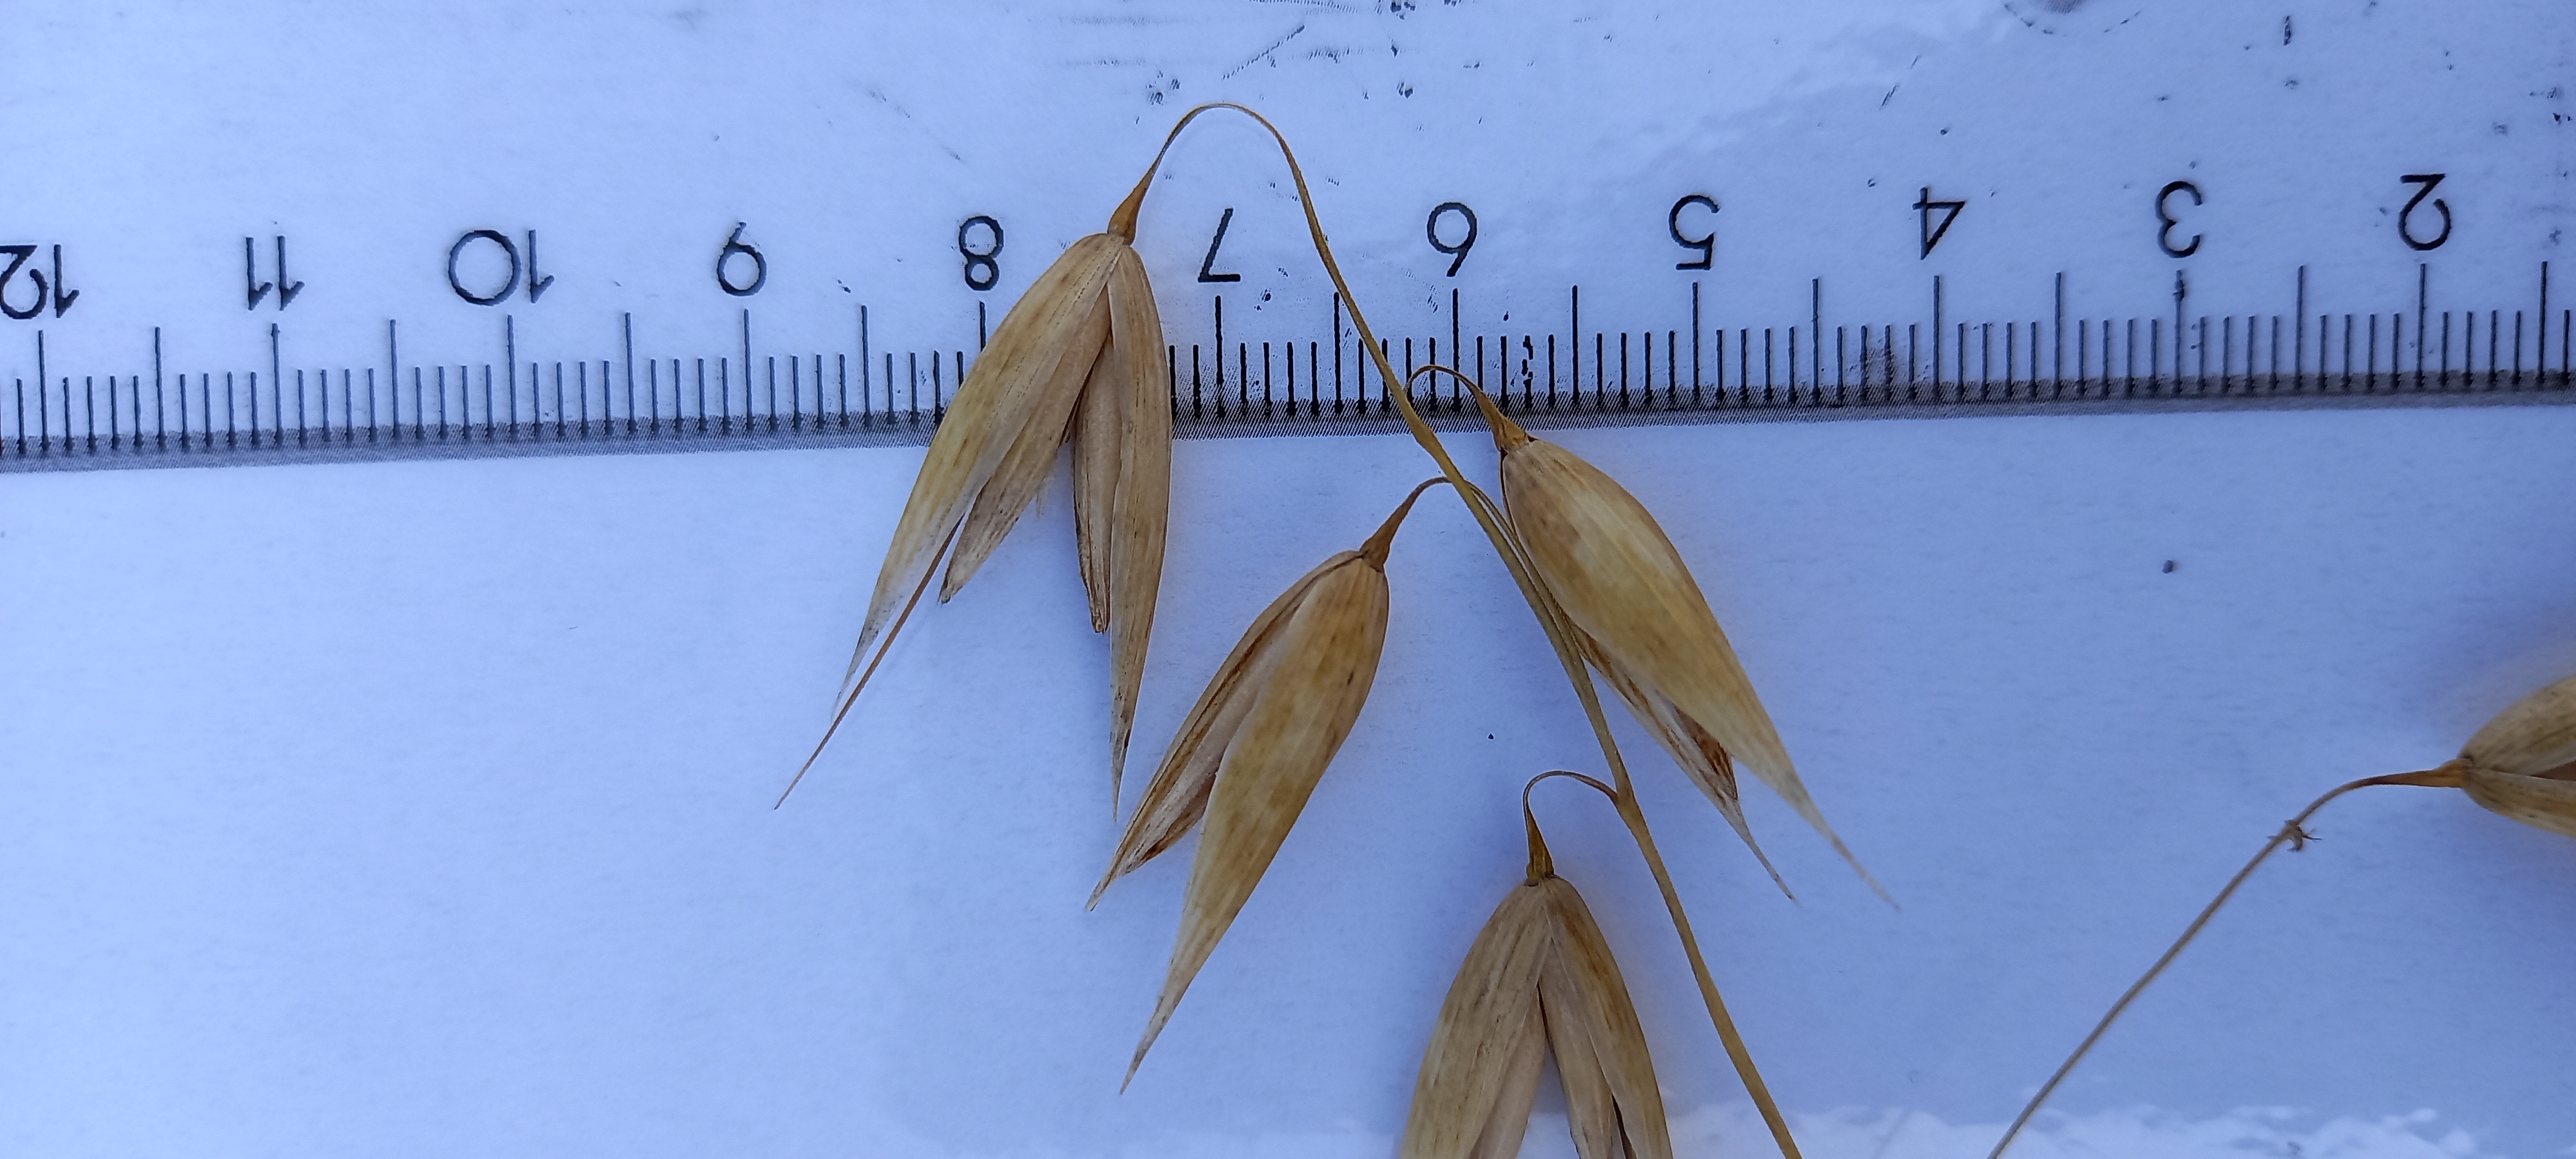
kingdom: Plantae
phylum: Tracheophyta
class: Liliopsida
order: Poales
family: Poaceae
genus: Avena
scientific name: Avena sativa
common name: Oat
